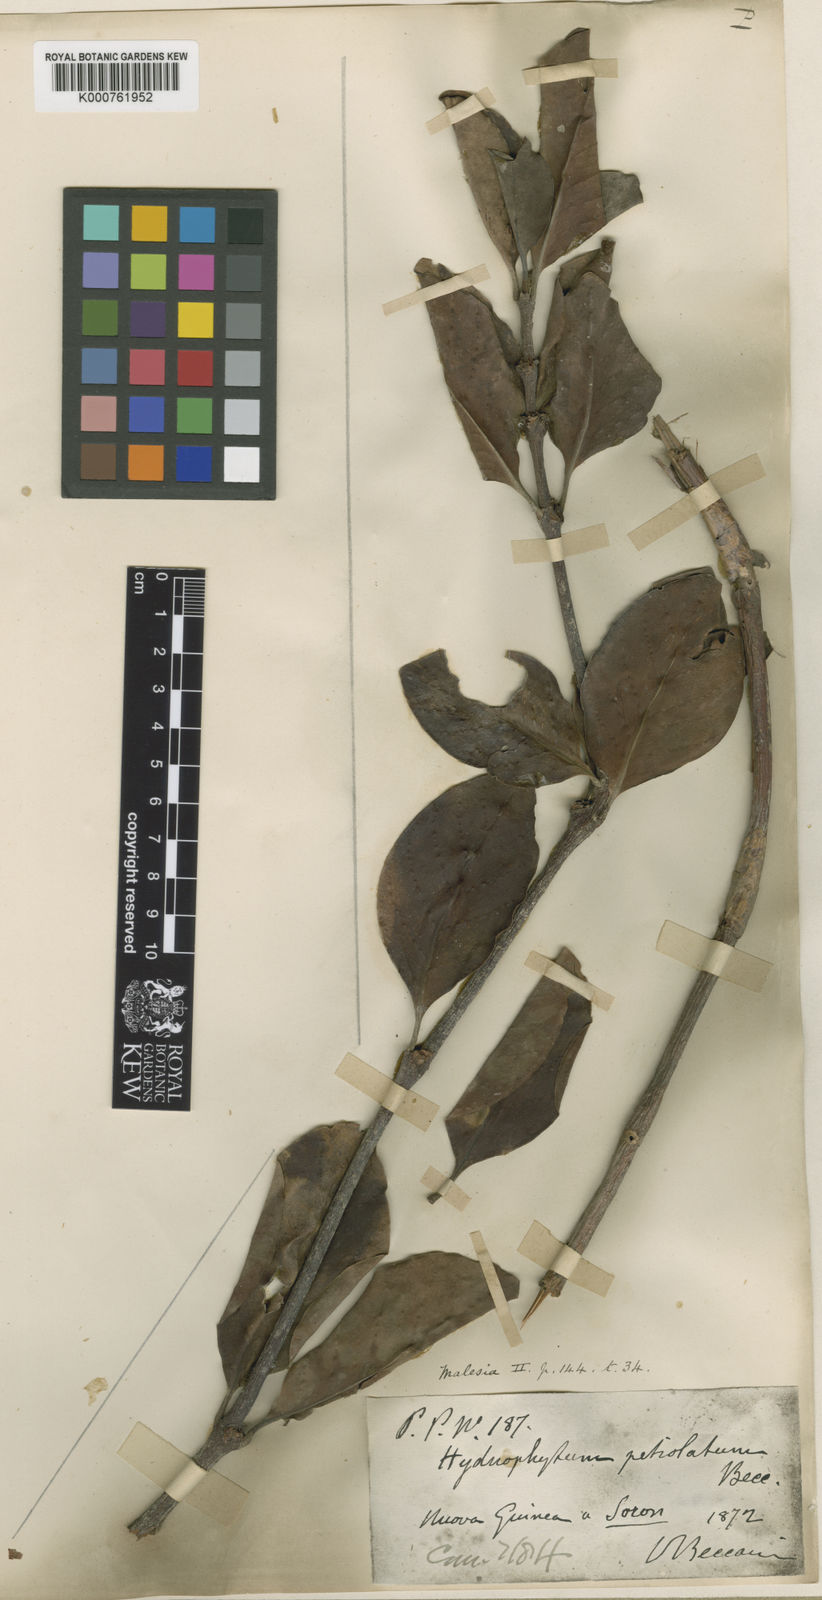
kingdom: Plantae
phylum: Tracheophyta
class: Magnoliopsida
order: Gentianales
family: Rubiaceae
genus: Hydnophytum
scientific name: Hydnophytum petiolatum
